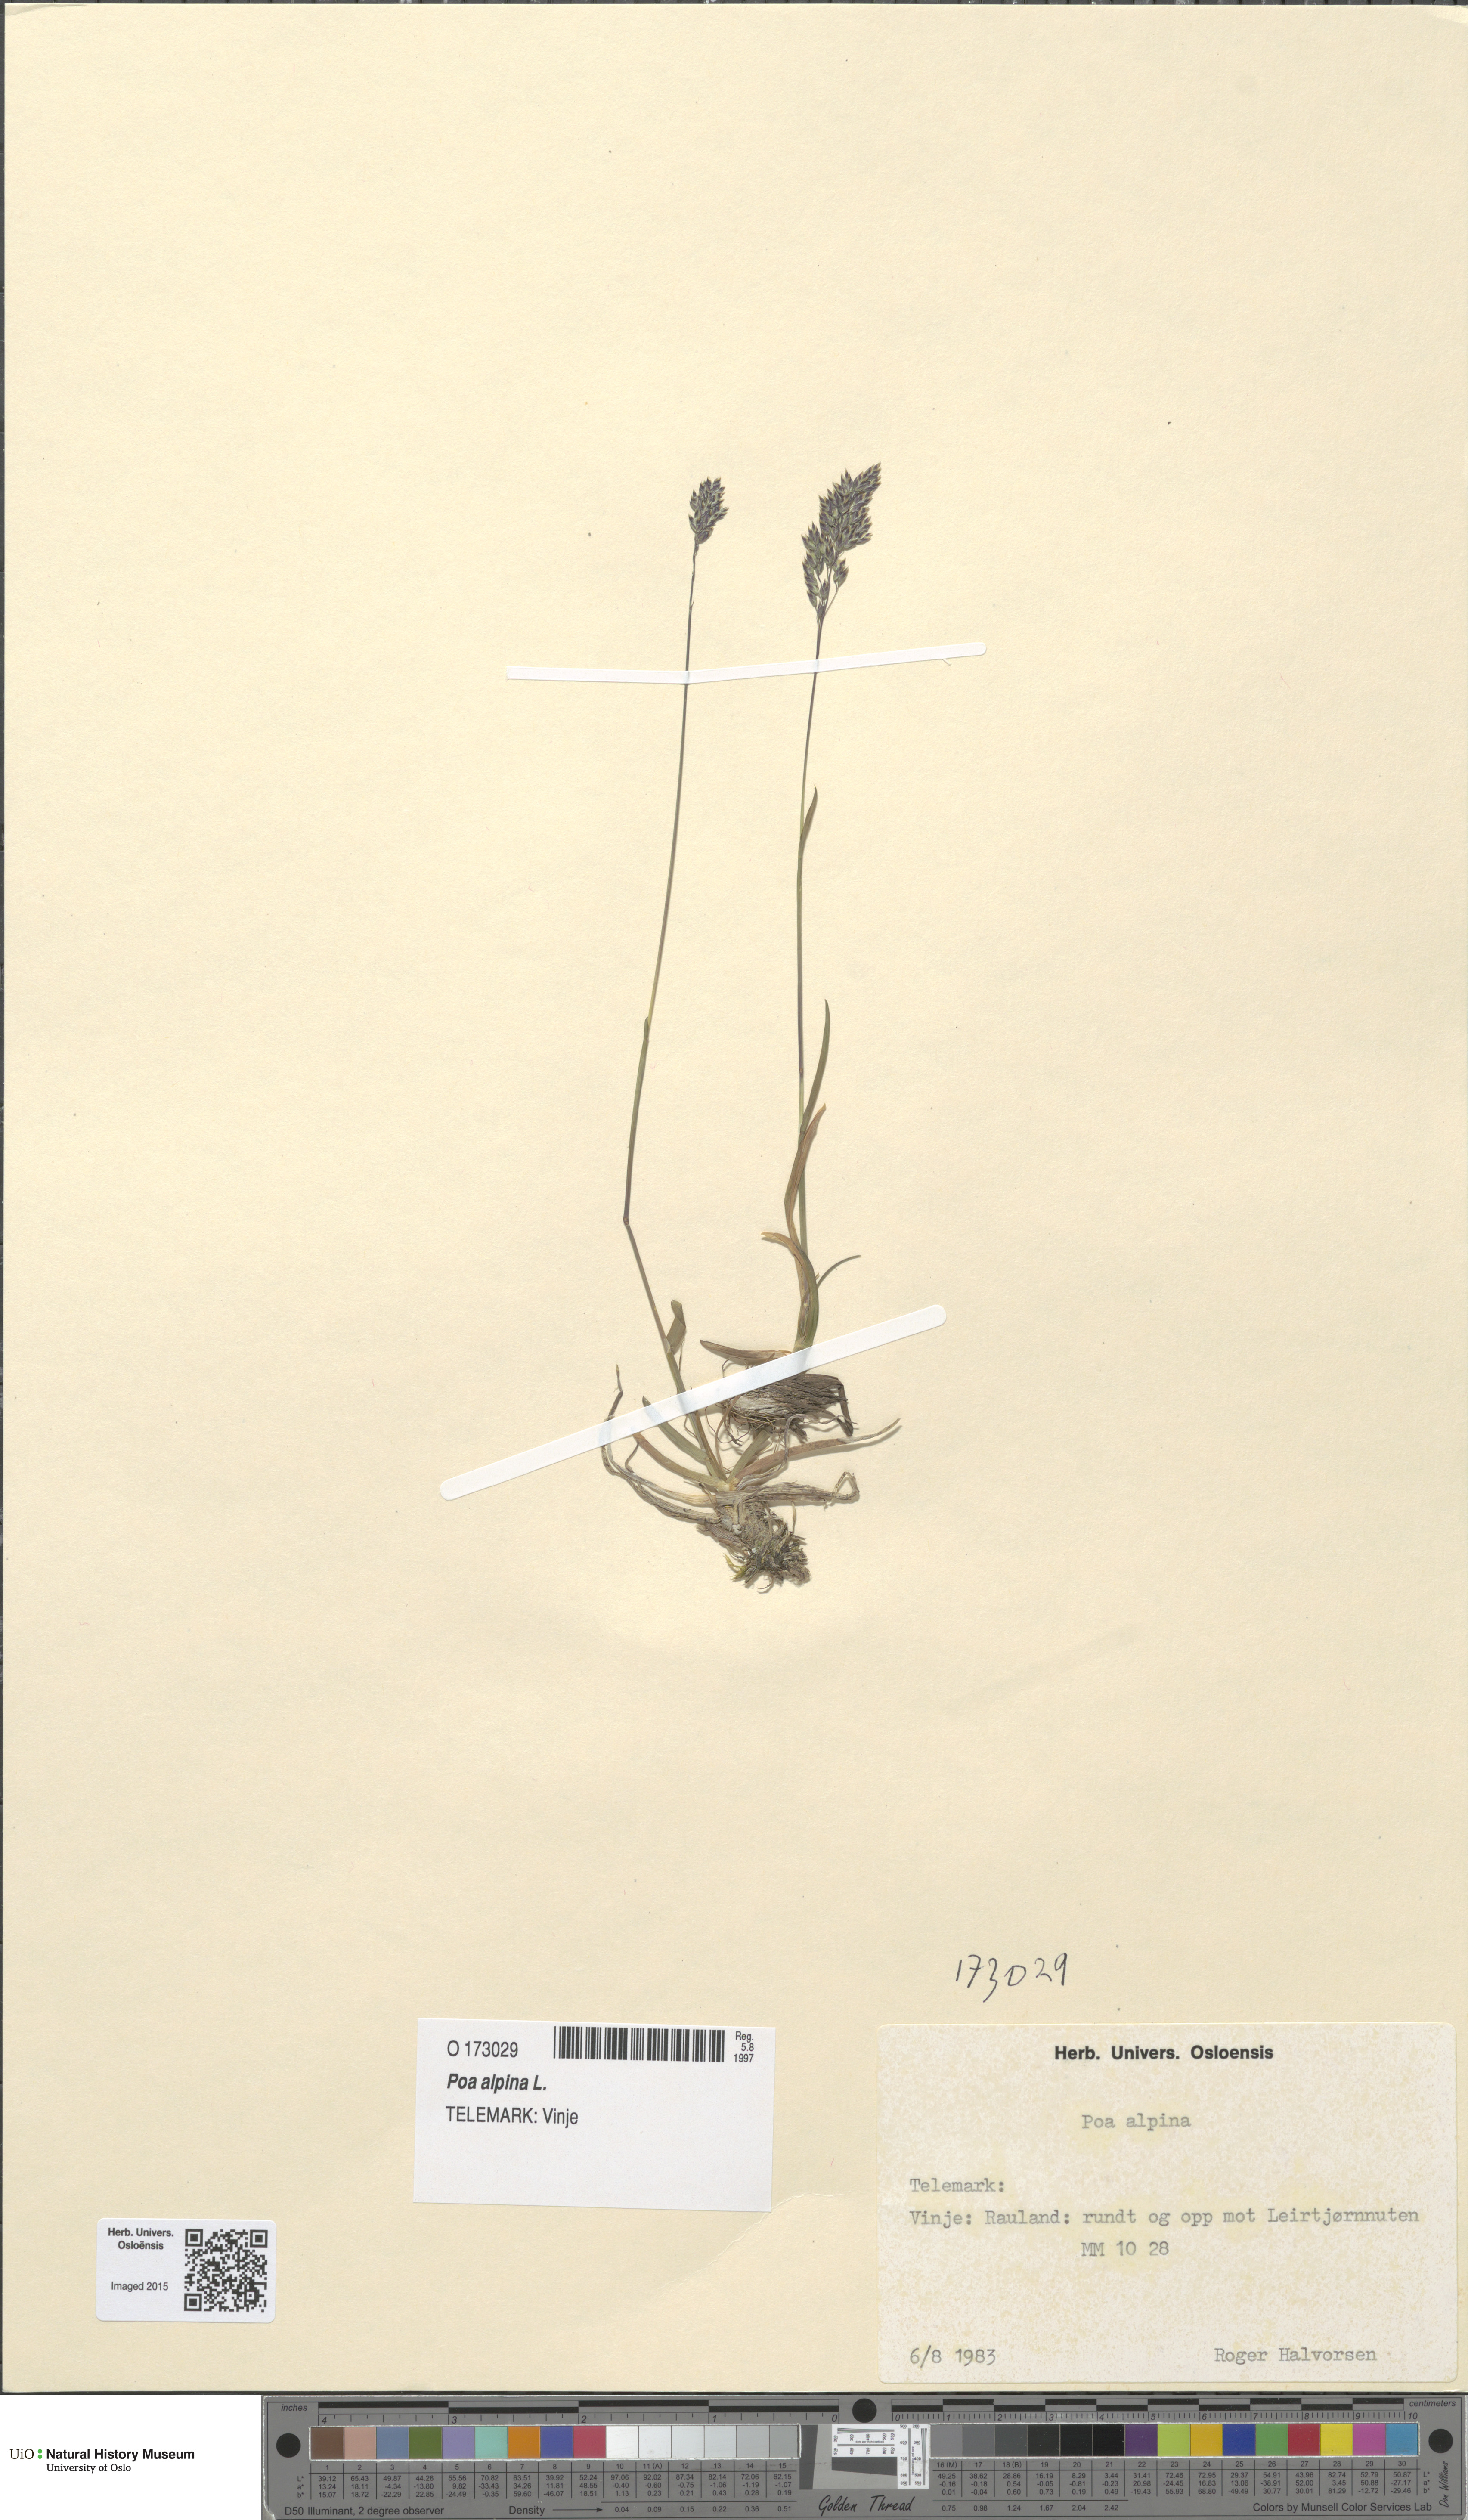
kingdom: Plantae
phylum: Tracheophyta
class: Liliopsida
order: Poales
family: Poaceae
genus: Poa
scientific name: Poa alpina
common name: Alpine bluegrass
